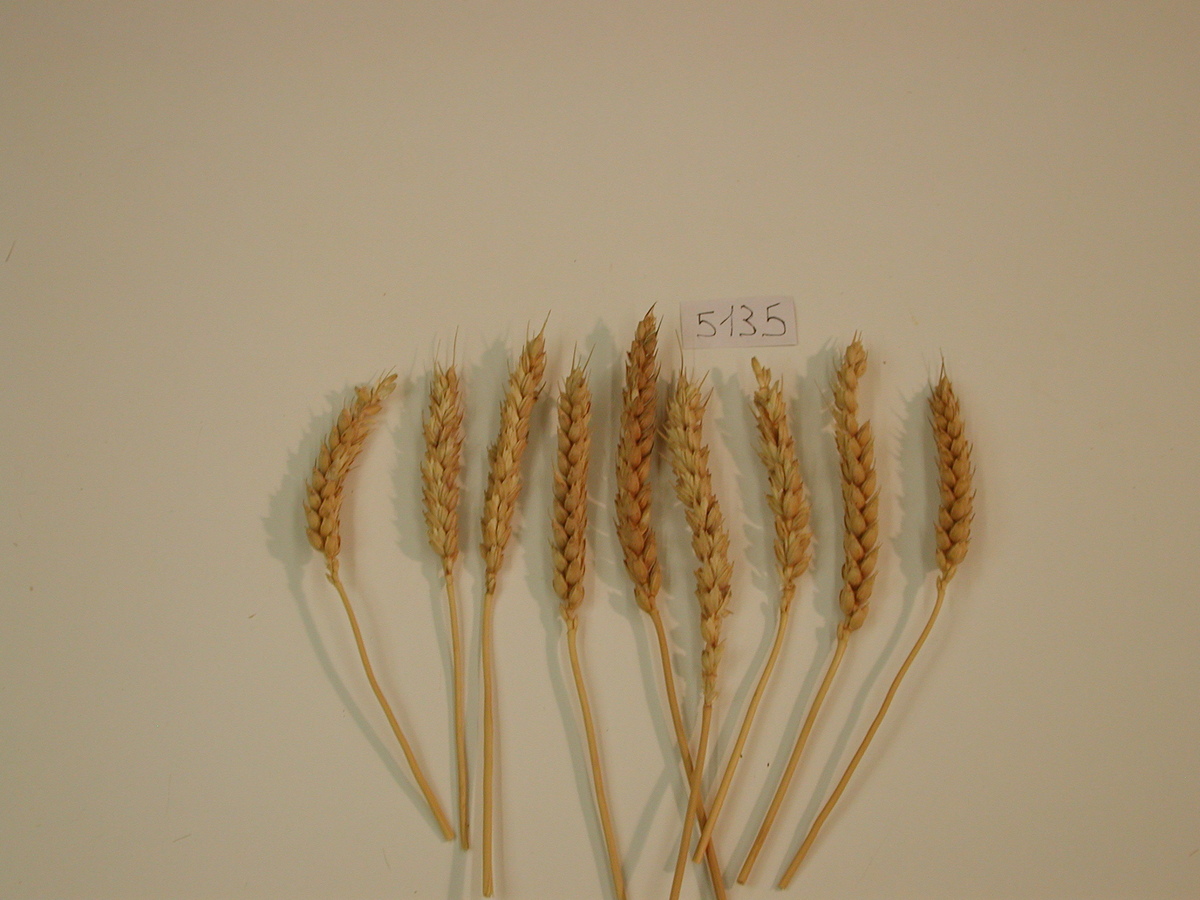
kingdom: Plantae
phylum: Tracheophyta
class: Liliopsida
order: Poales
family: Poaceae
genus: Triticum
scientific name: Triticum aestivum
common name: Wheat
